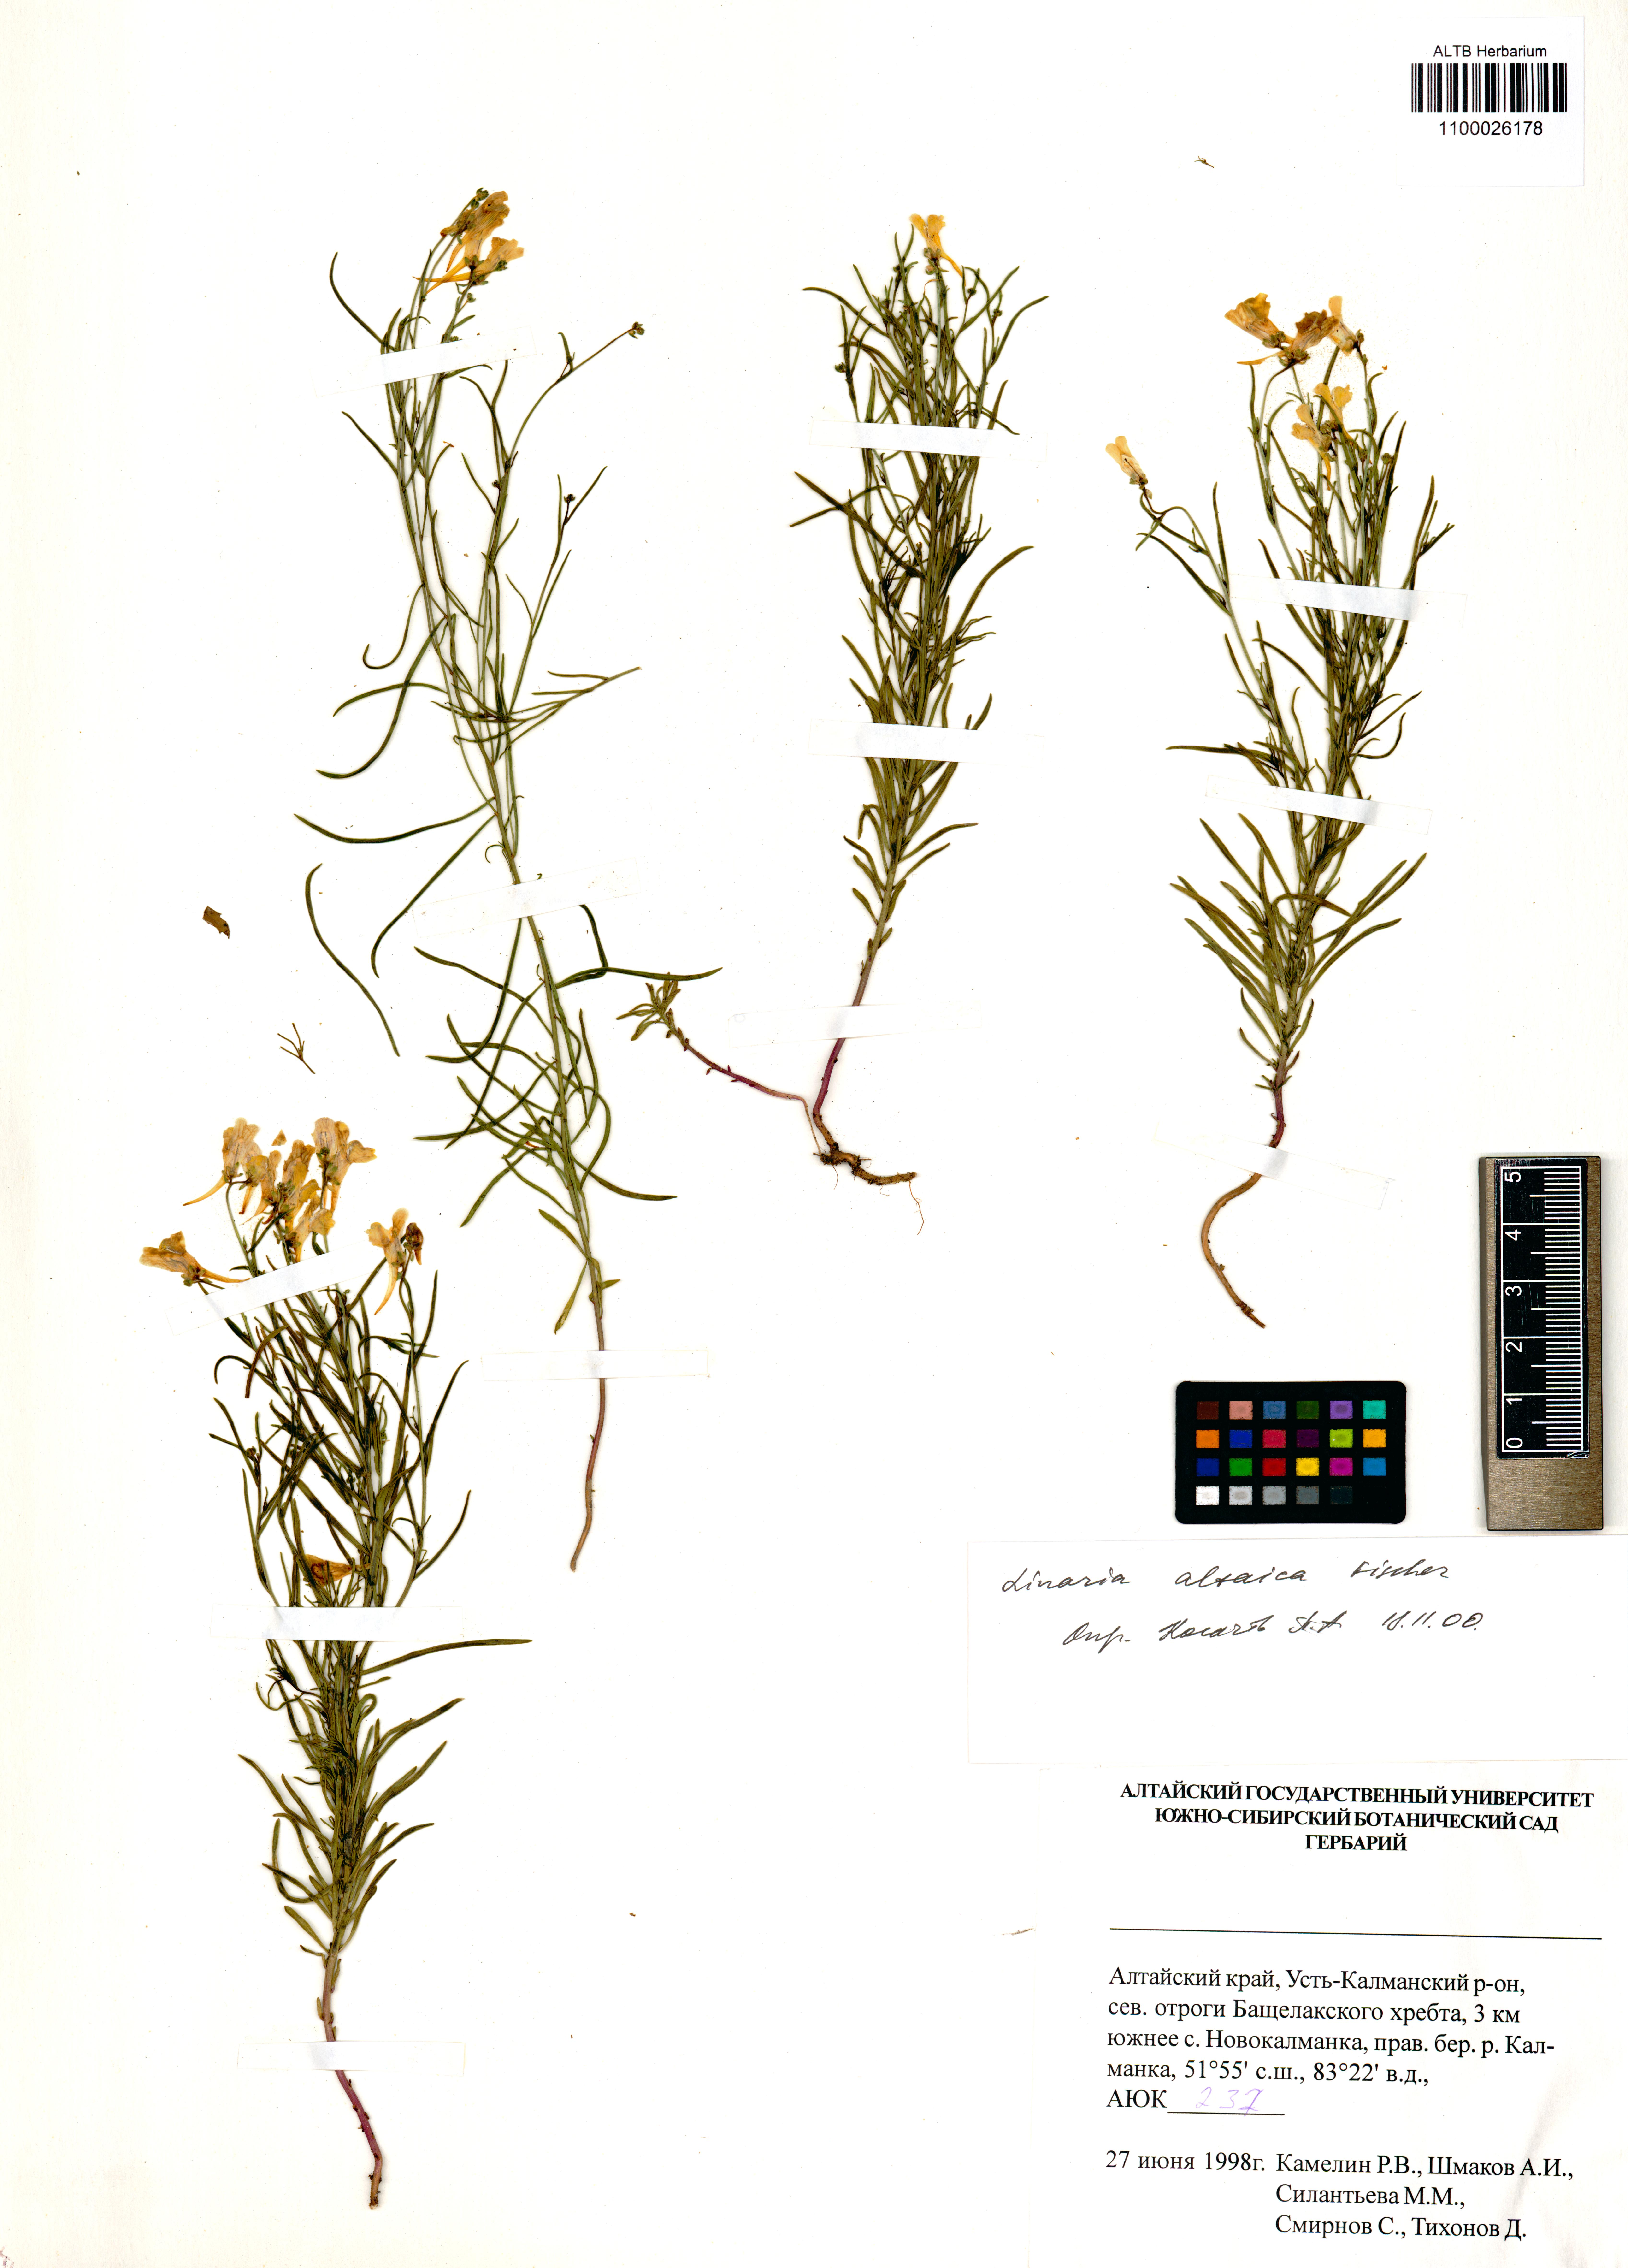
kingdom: Plantae
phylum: Tracheophyta
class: Magnoliopsida
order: Lamiales
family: Plantaginaceae
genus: Linaria
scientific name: Linaria altaica
